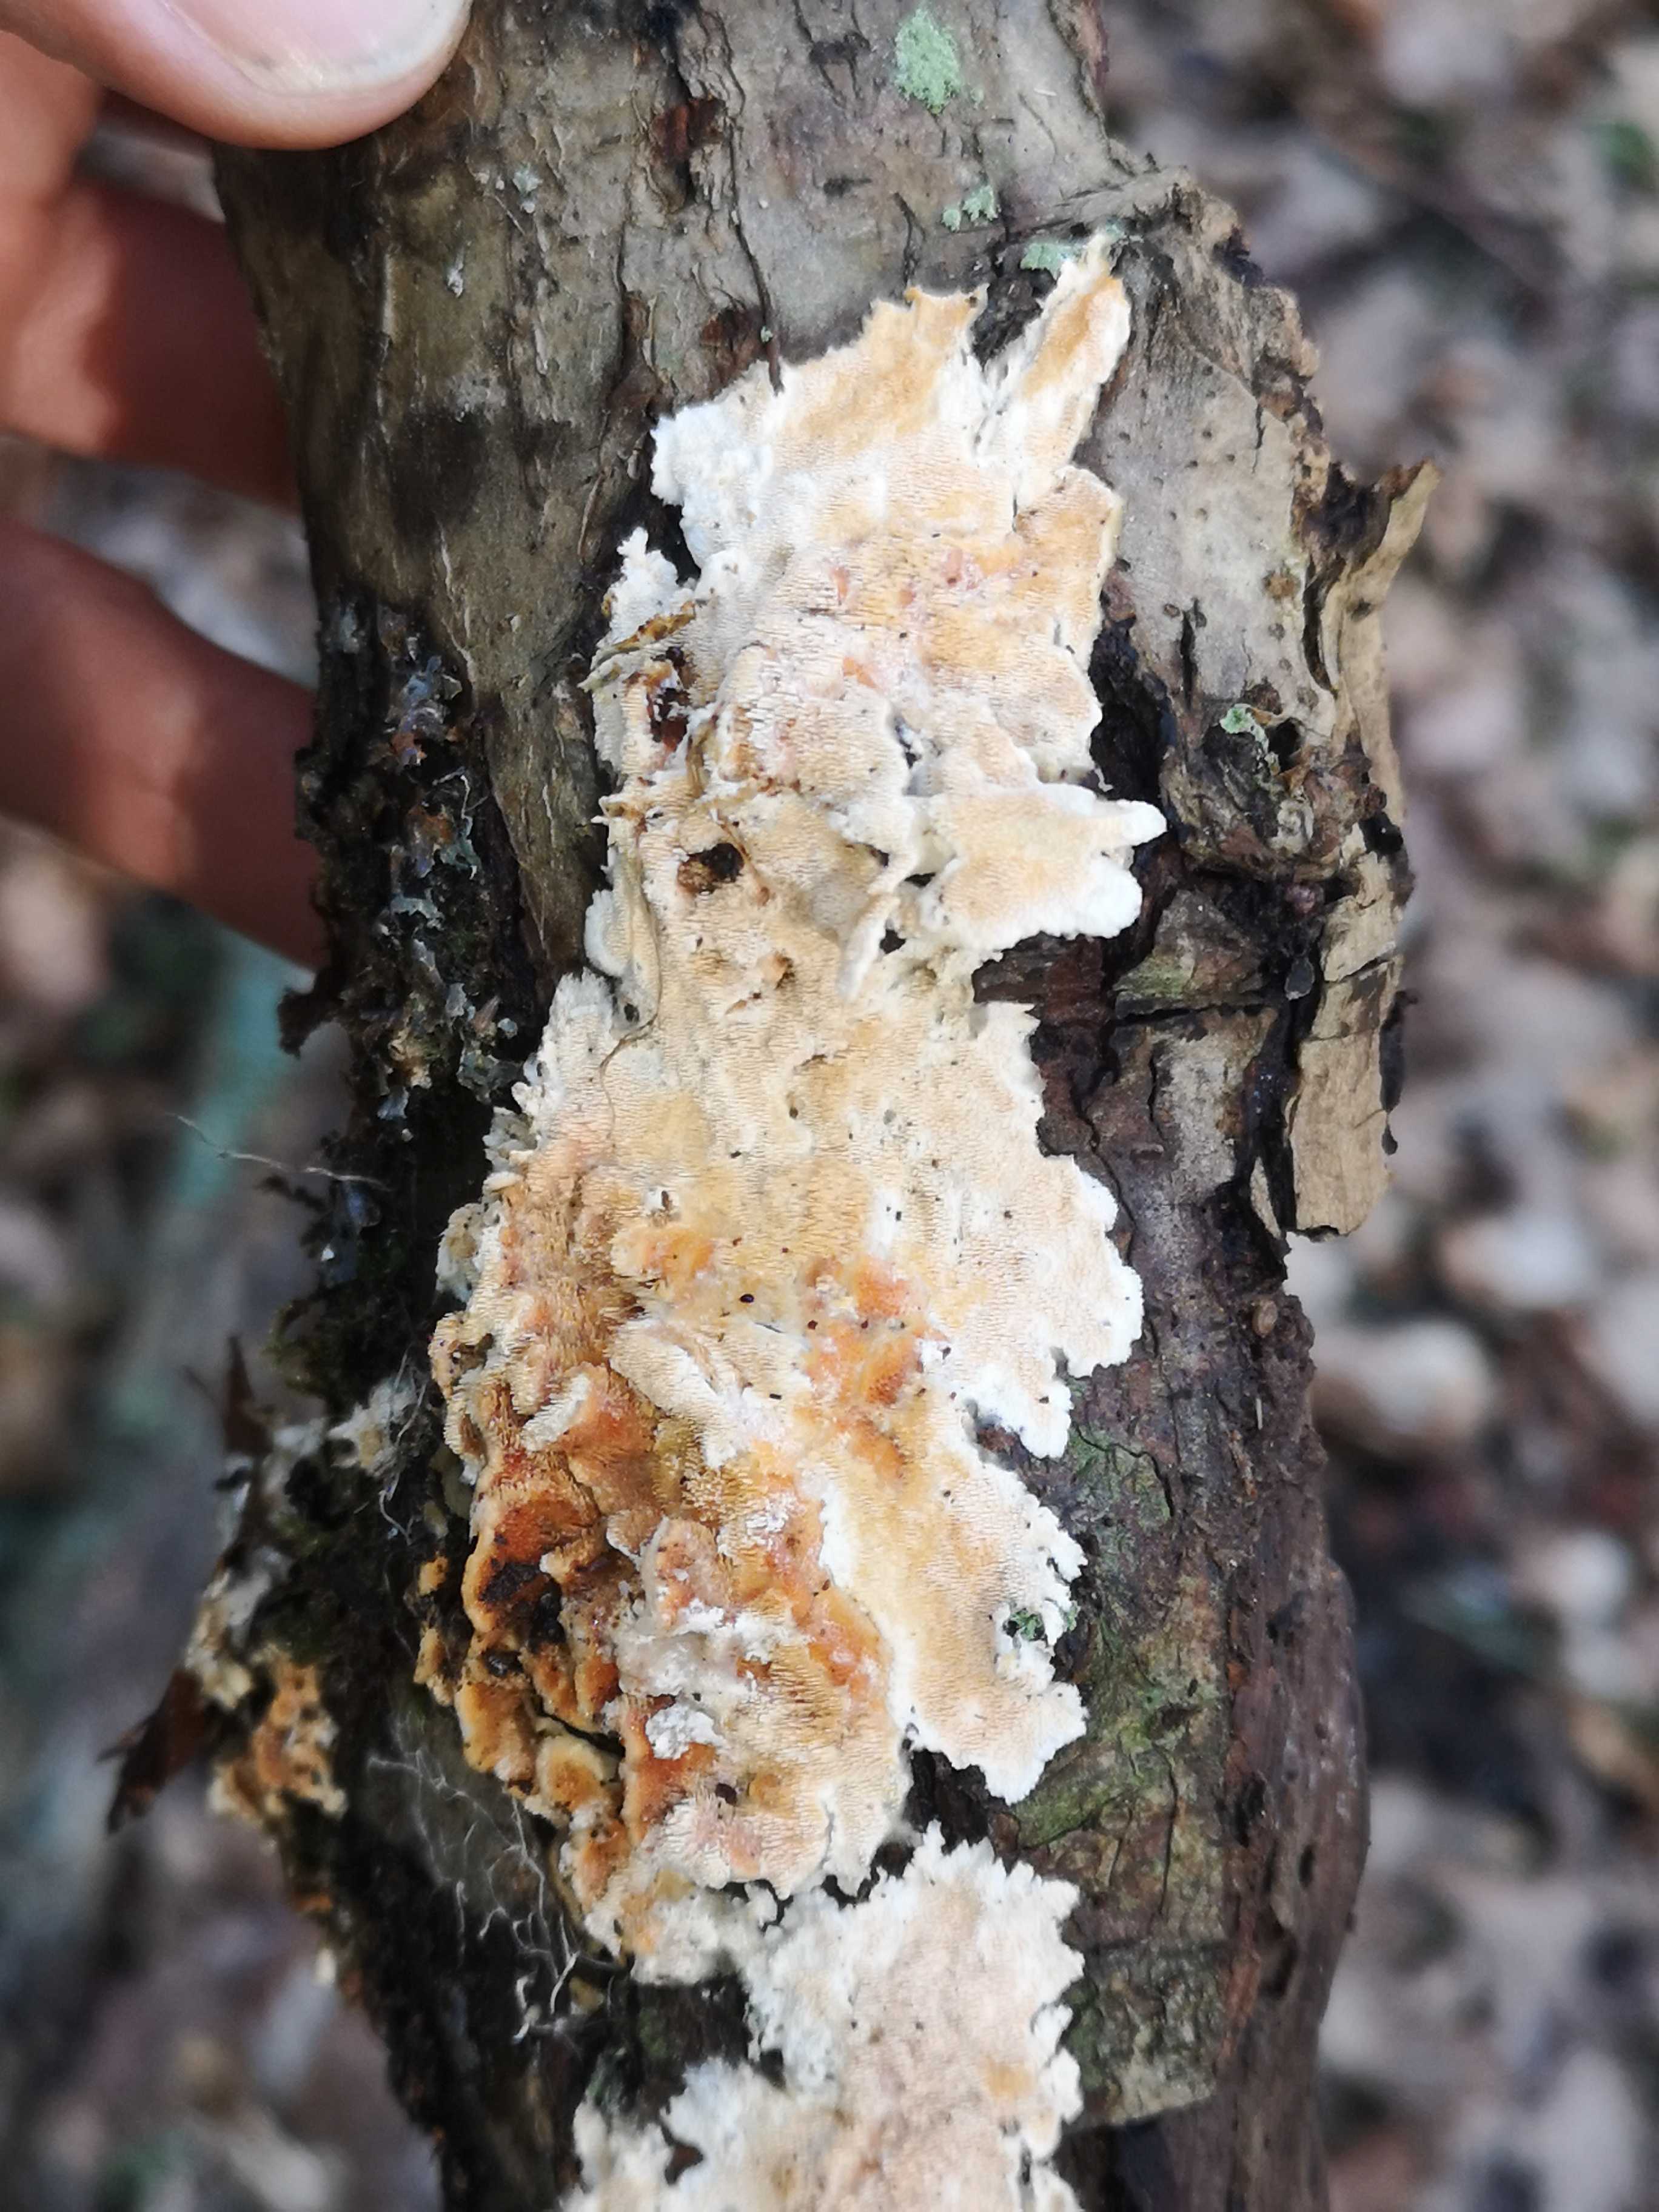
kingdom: Fungi
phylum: Basidiomycota
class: Agaricomycetes
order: Polyporales
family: Steccherinaceae
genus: Steccherinum
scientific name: Steccherinum ochraceum
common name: almindelig skønpig
